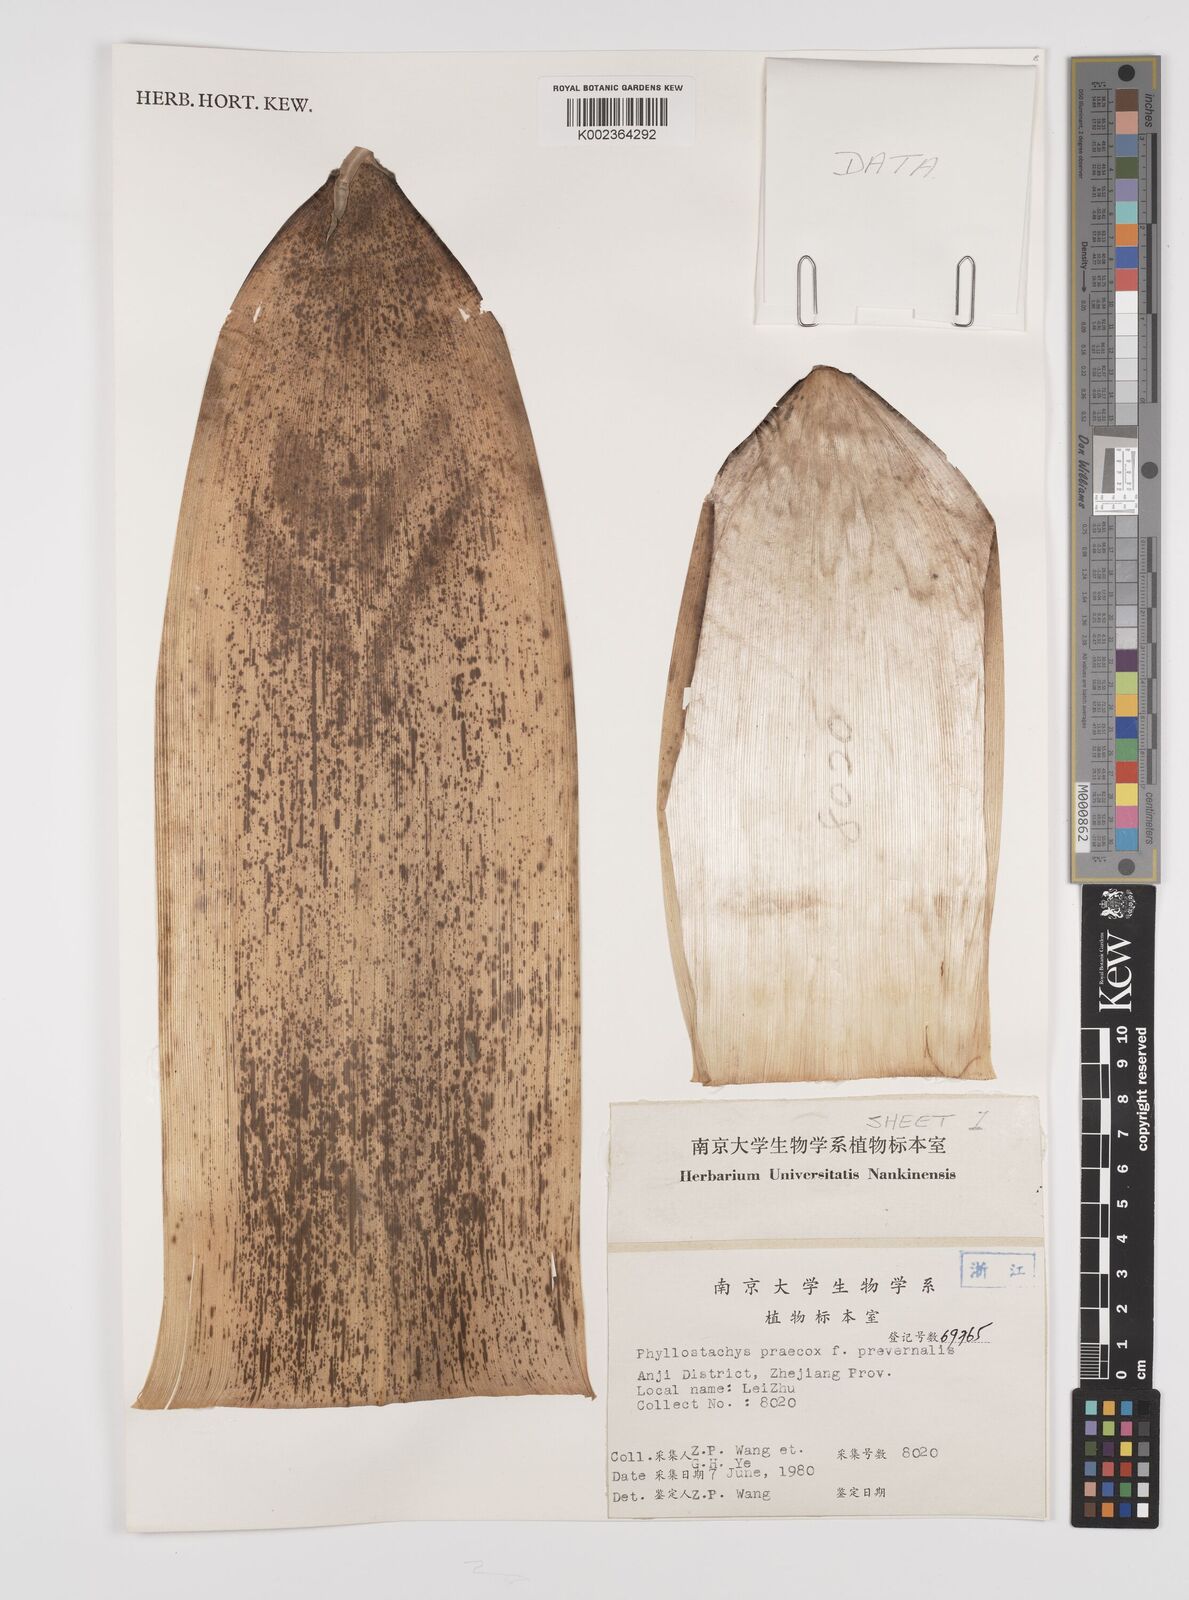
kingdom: Plantae
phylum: Tracheophyta
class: Liliopsida
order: Poales
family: Poaceae
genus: Phyllostachys
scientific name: Phyllostachys violascens
